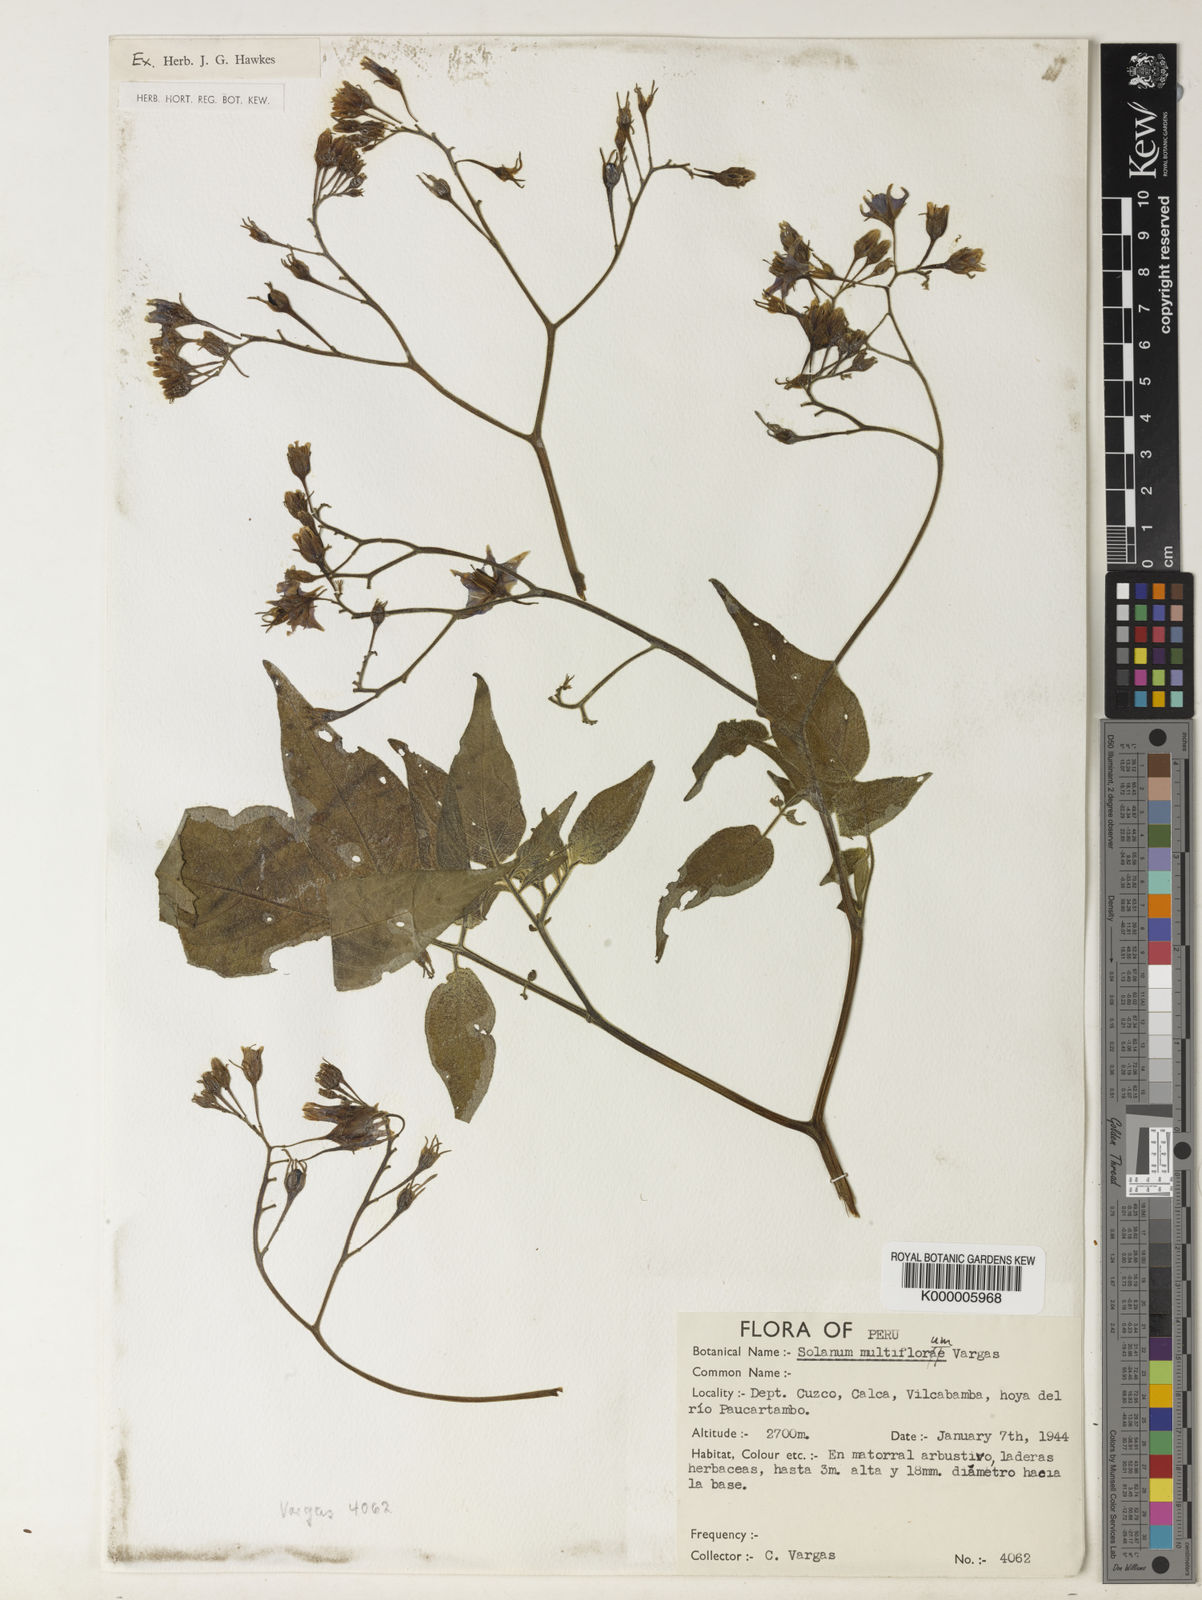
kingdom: Plantae
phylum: Tracheophyta
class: Magnoliopsida
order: Solanales
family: Solanaceae
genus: Solanum
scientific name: Solanum violaceimarmoratum
